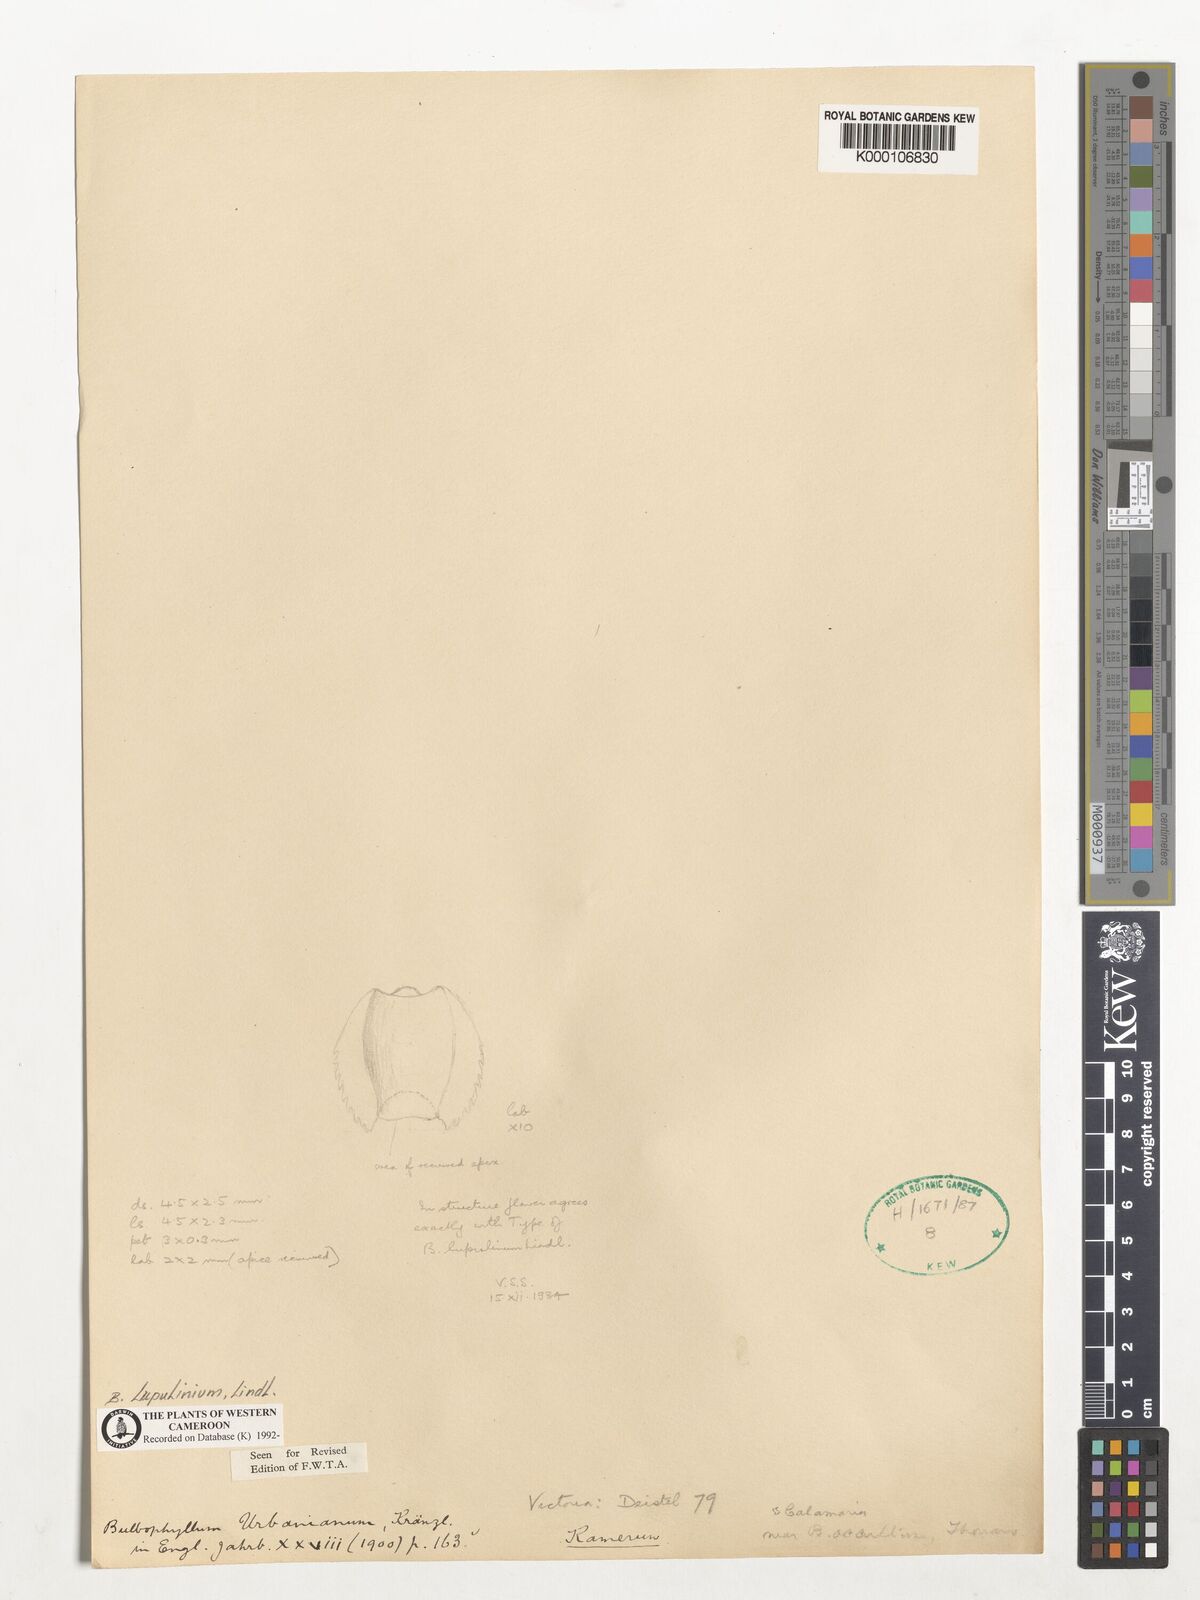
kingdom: Plantae
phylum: Tracheophyta
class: Liliopsida
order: Asparagales
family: Orchidaceae
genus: Bulbophyllum
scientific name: Bulbophyllum lupulinum
